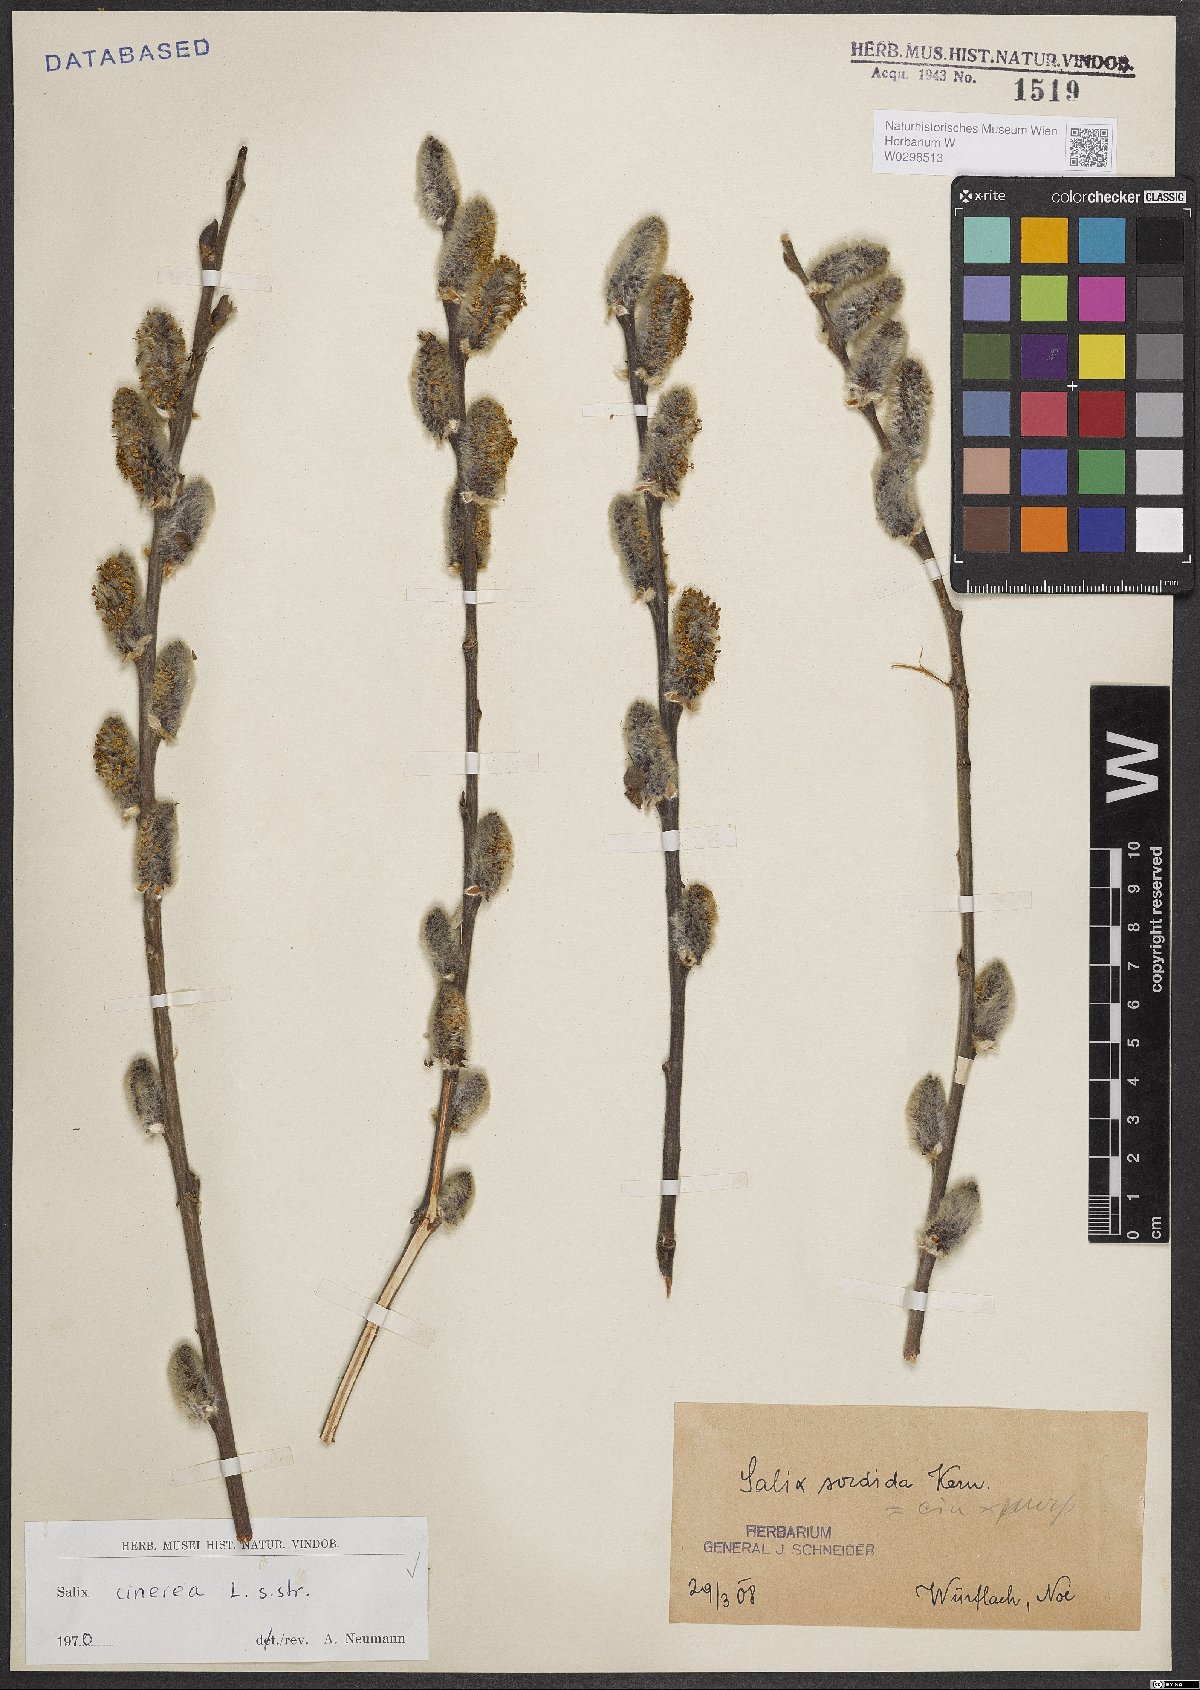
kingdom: Plantae
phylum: Tracheophyta
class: Magnoliopsida
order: Malpighiales
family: Salicaceae
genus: Salix
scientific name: Salix cinerea
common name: Common sallow
